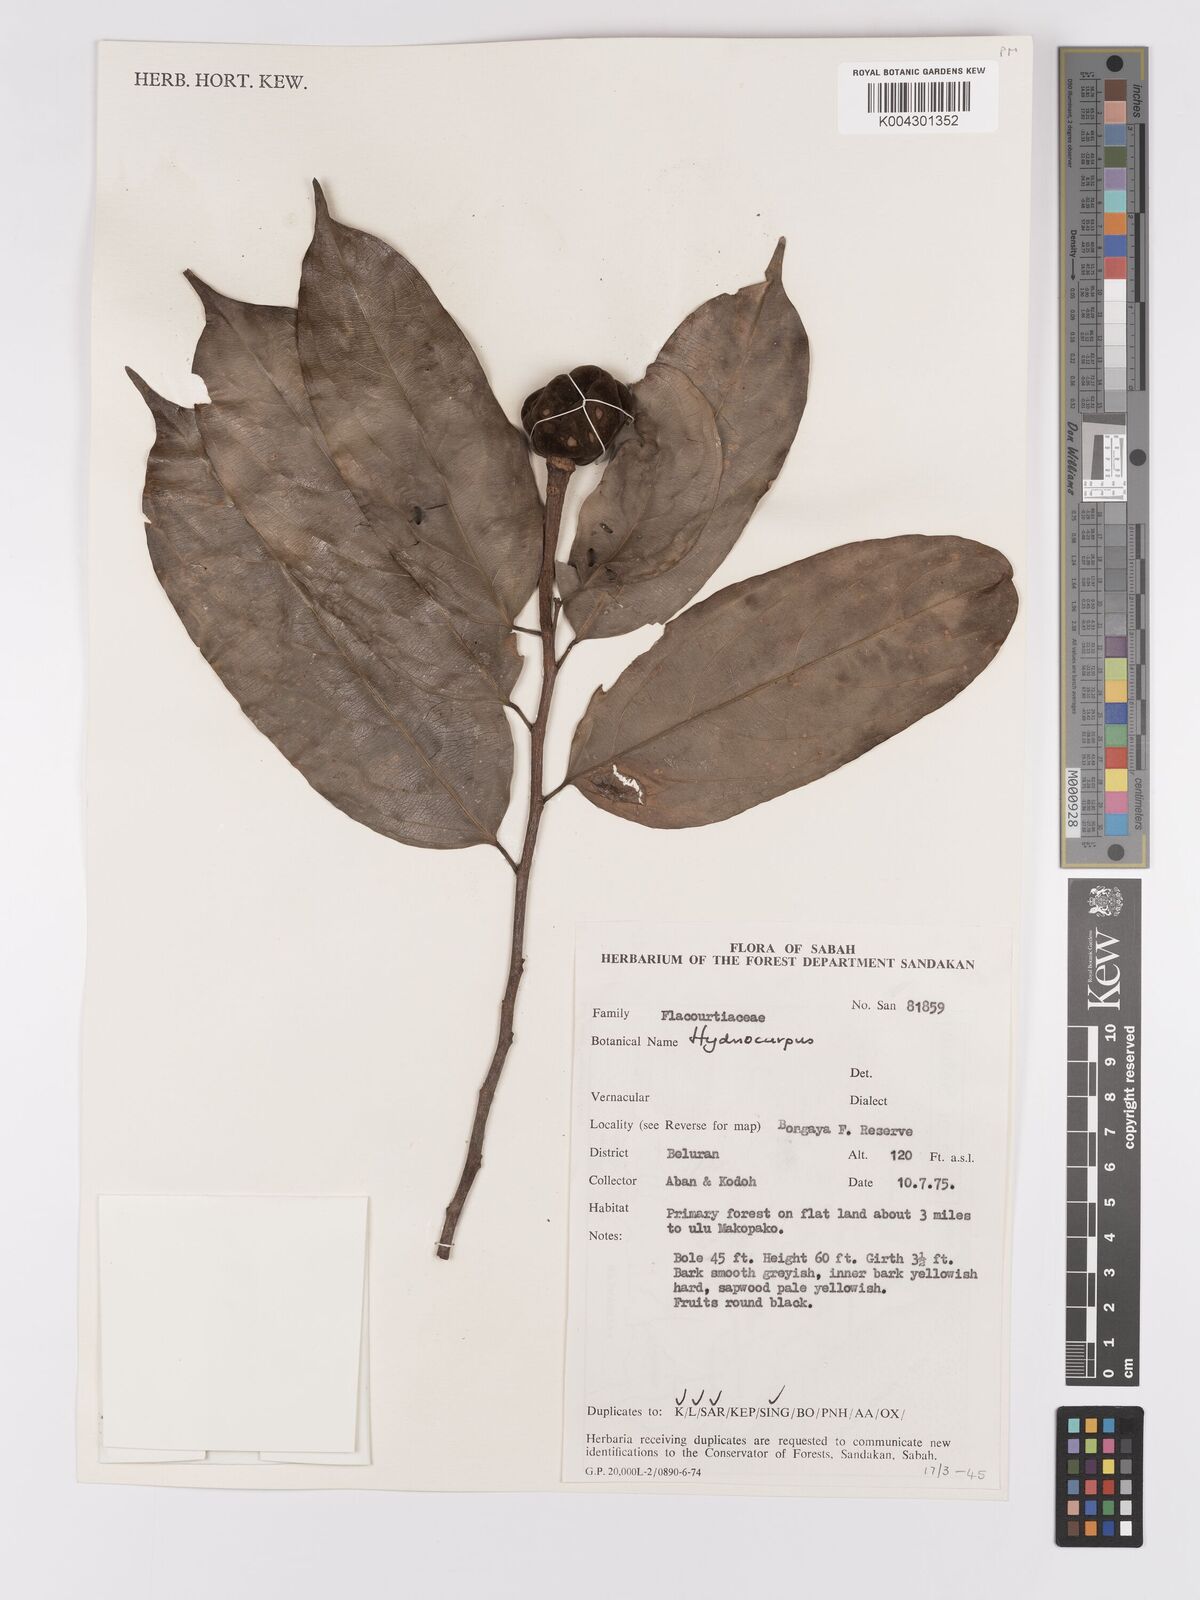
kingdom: Plantae
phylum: Tracheophyta
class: Magnoliopsida
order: Malpighiales
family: Achariaceae
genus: Hydnocarpus
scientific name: Hydnocarpus
